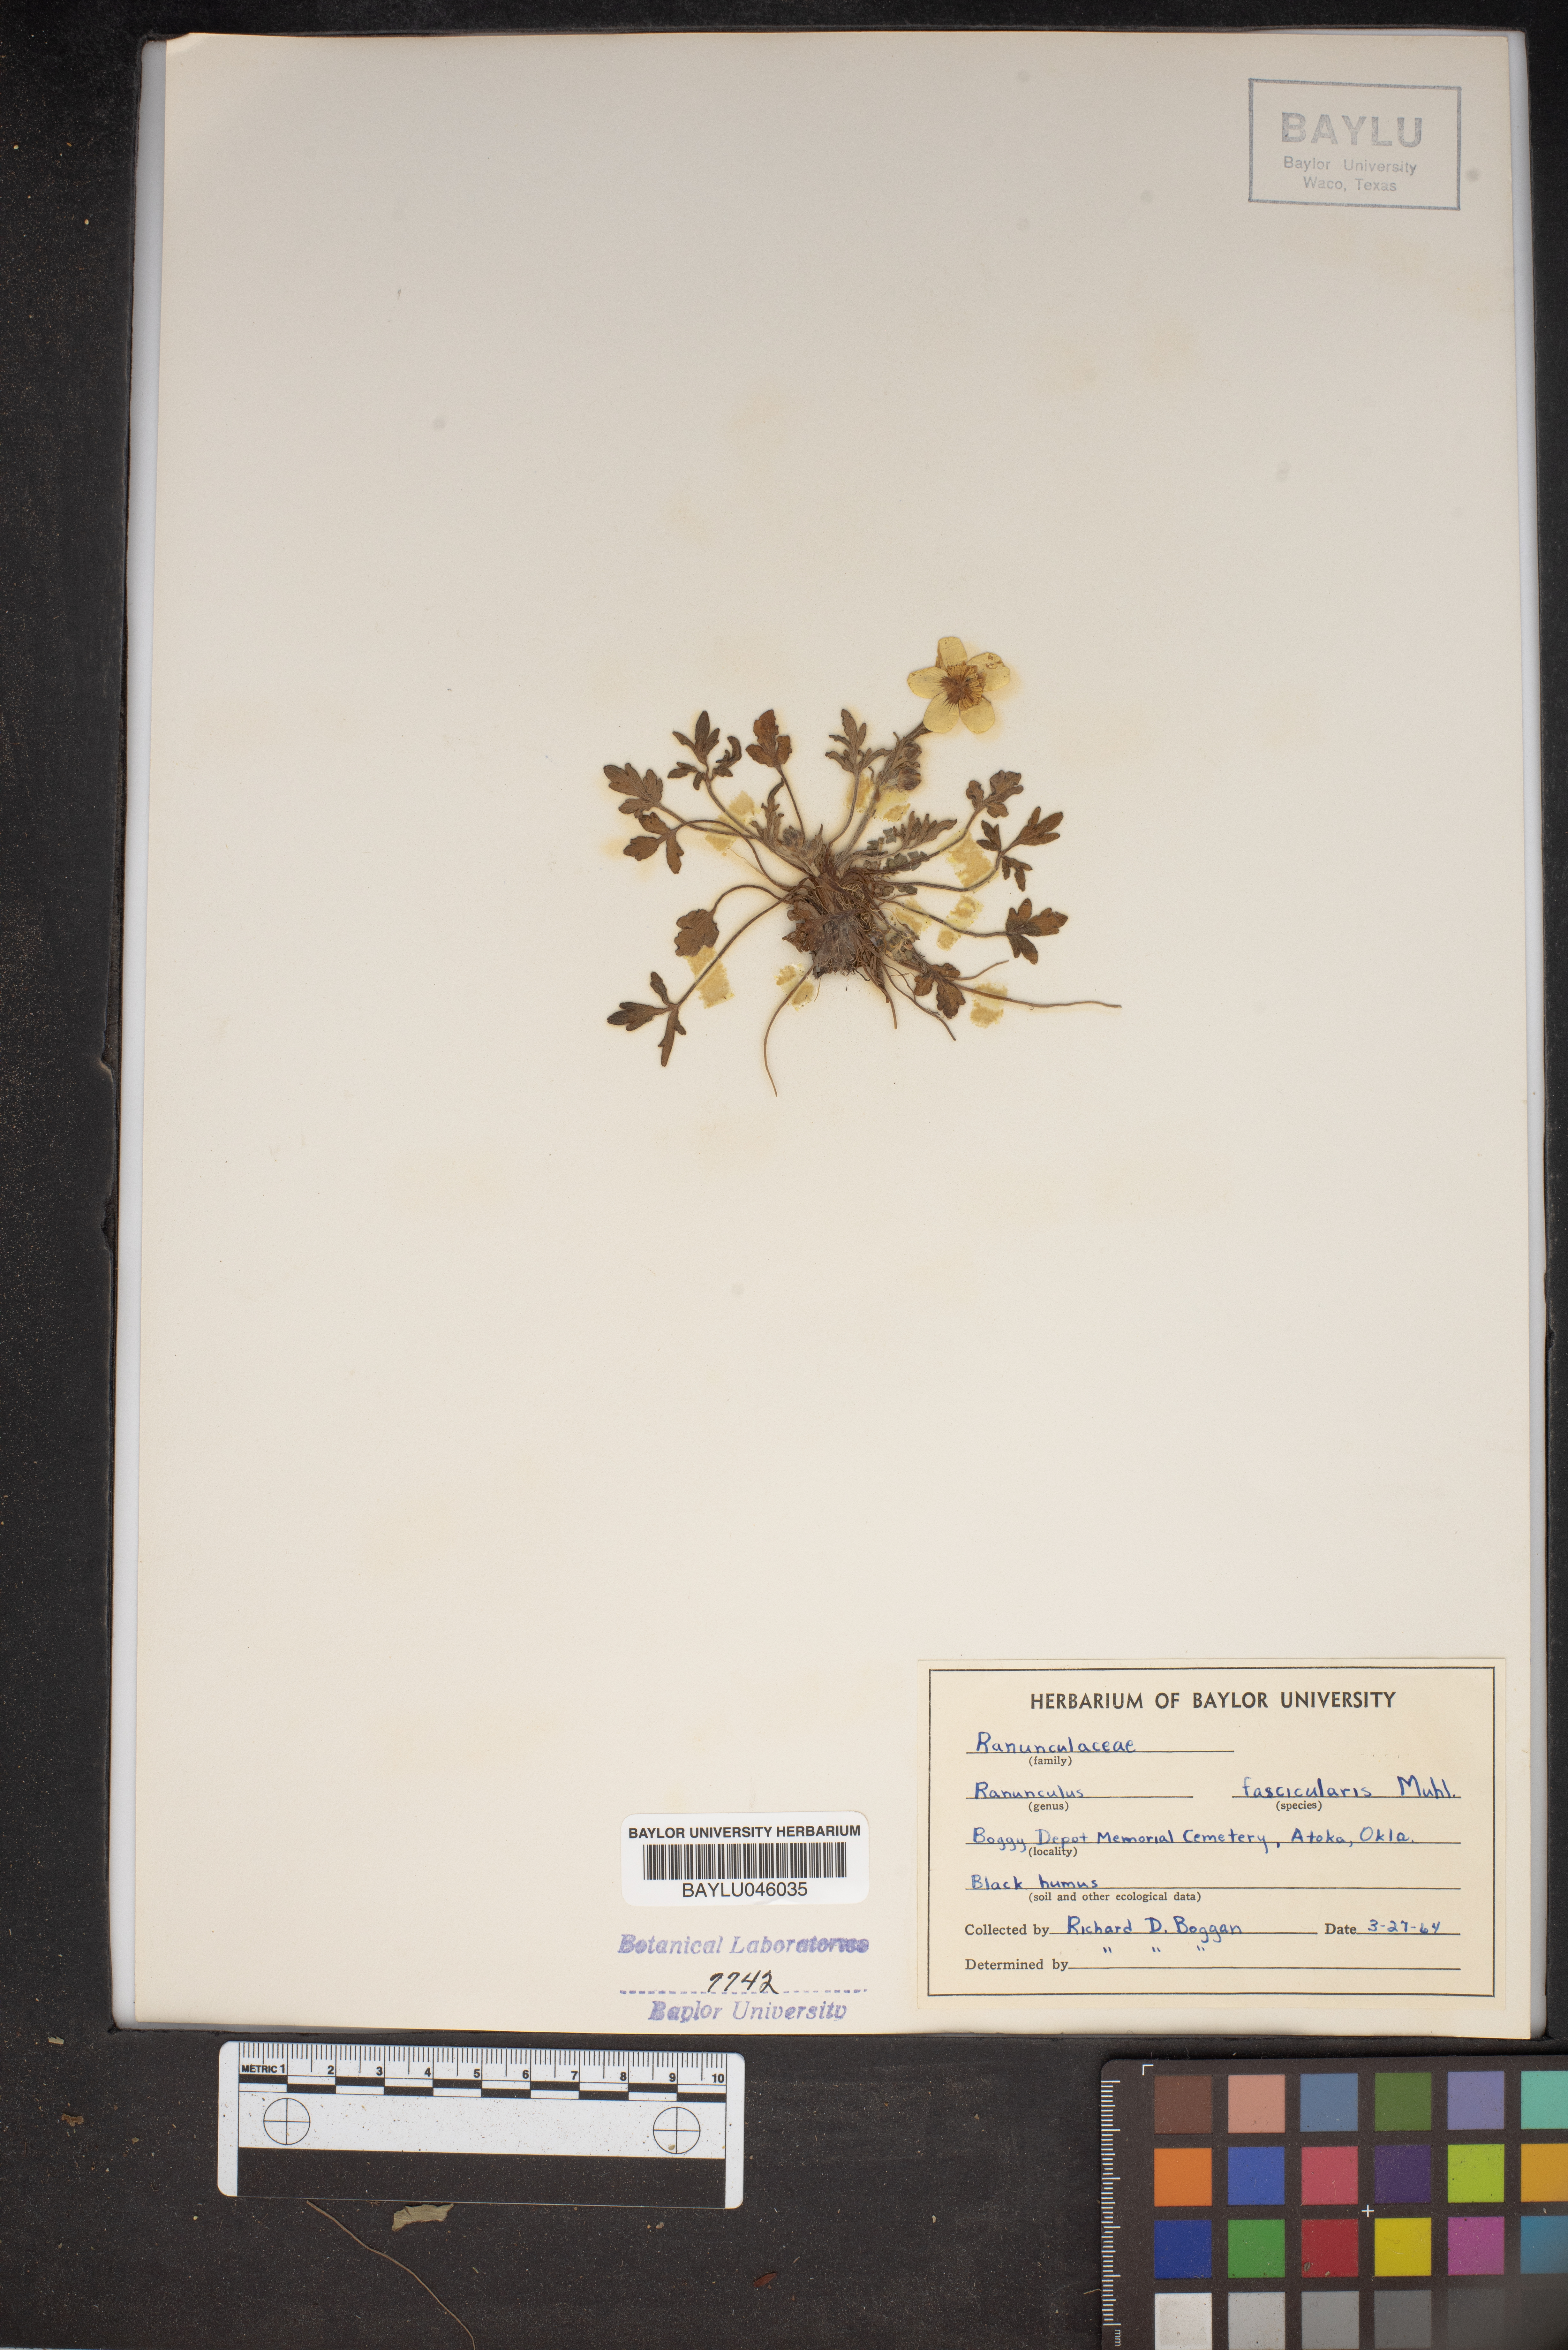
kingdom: Plantae
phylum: Tracheophyta
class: Magnoliopsida
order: Ranunculales
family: Ranunculaceae
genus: Ranunculus
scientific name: Ranunculus fascicularis
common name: Early buttercup
